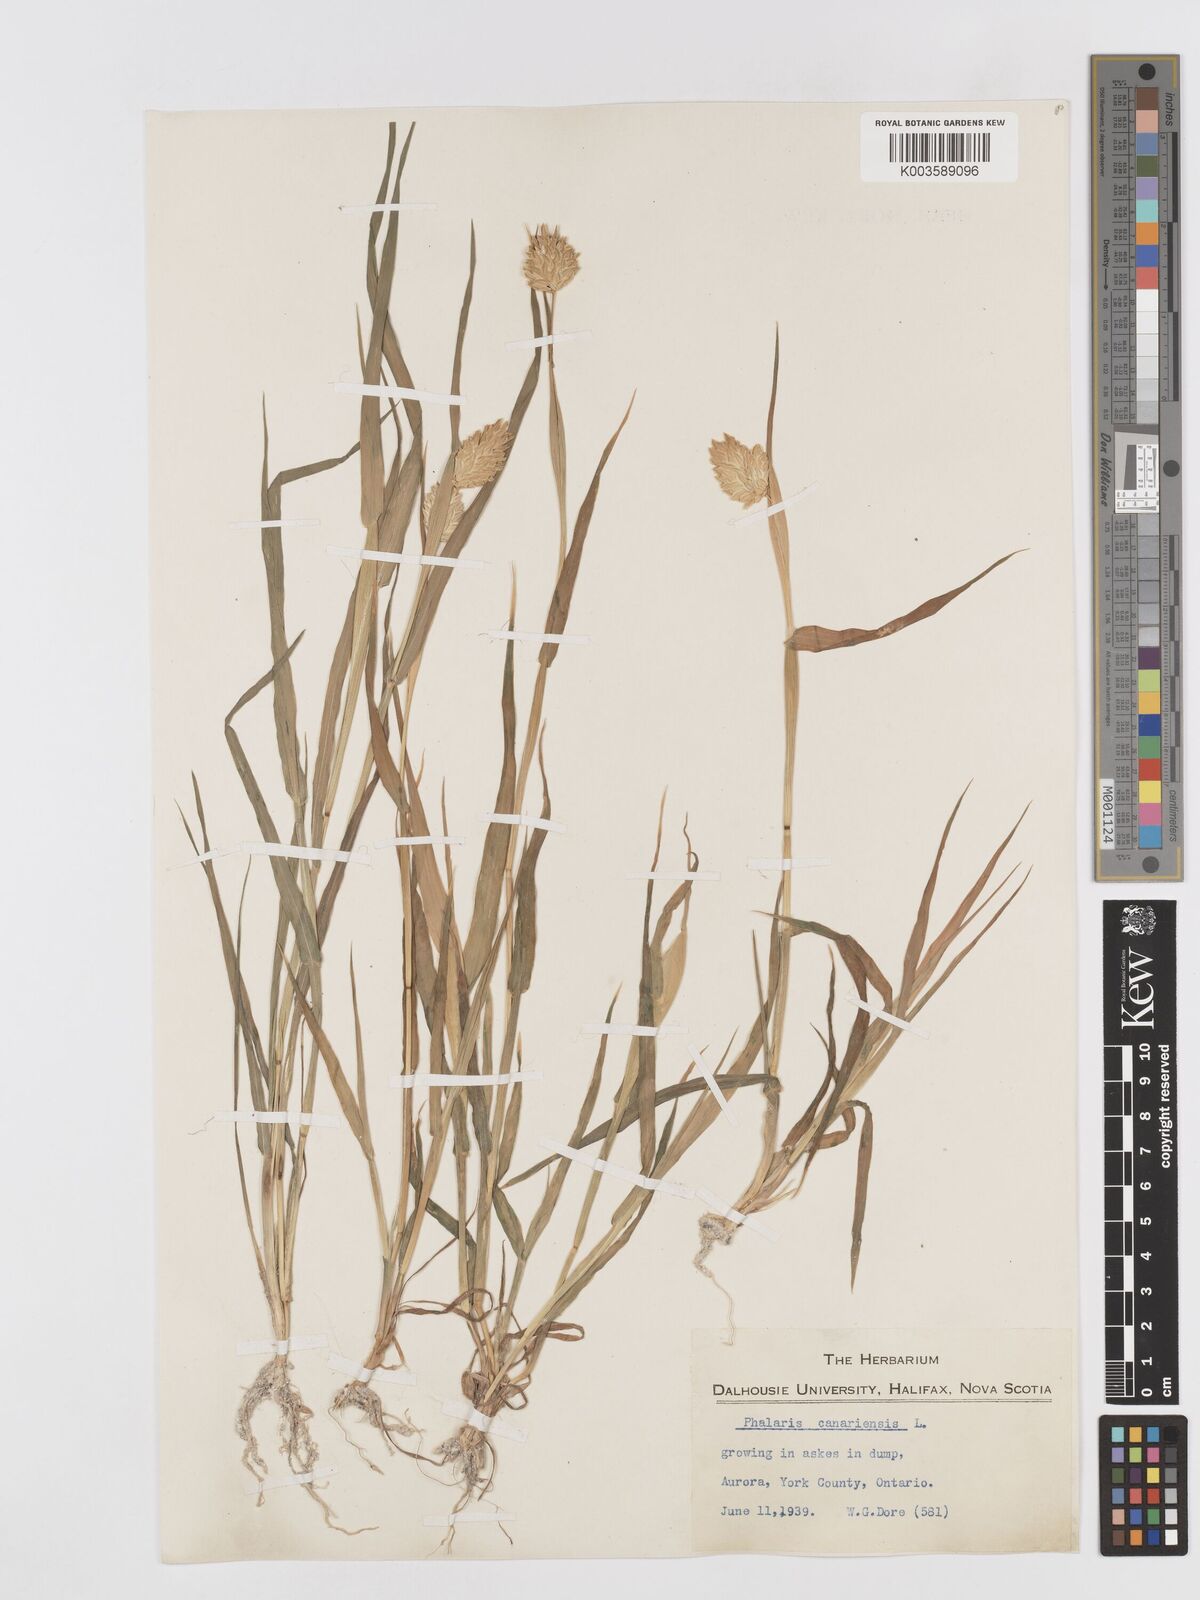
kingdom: Plantae
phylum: Tracheophyta
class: Liliopsida
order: Poales
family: Poaceae
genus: Phalaris
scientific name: Phalaris canariensis
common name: Annual canarygrass
